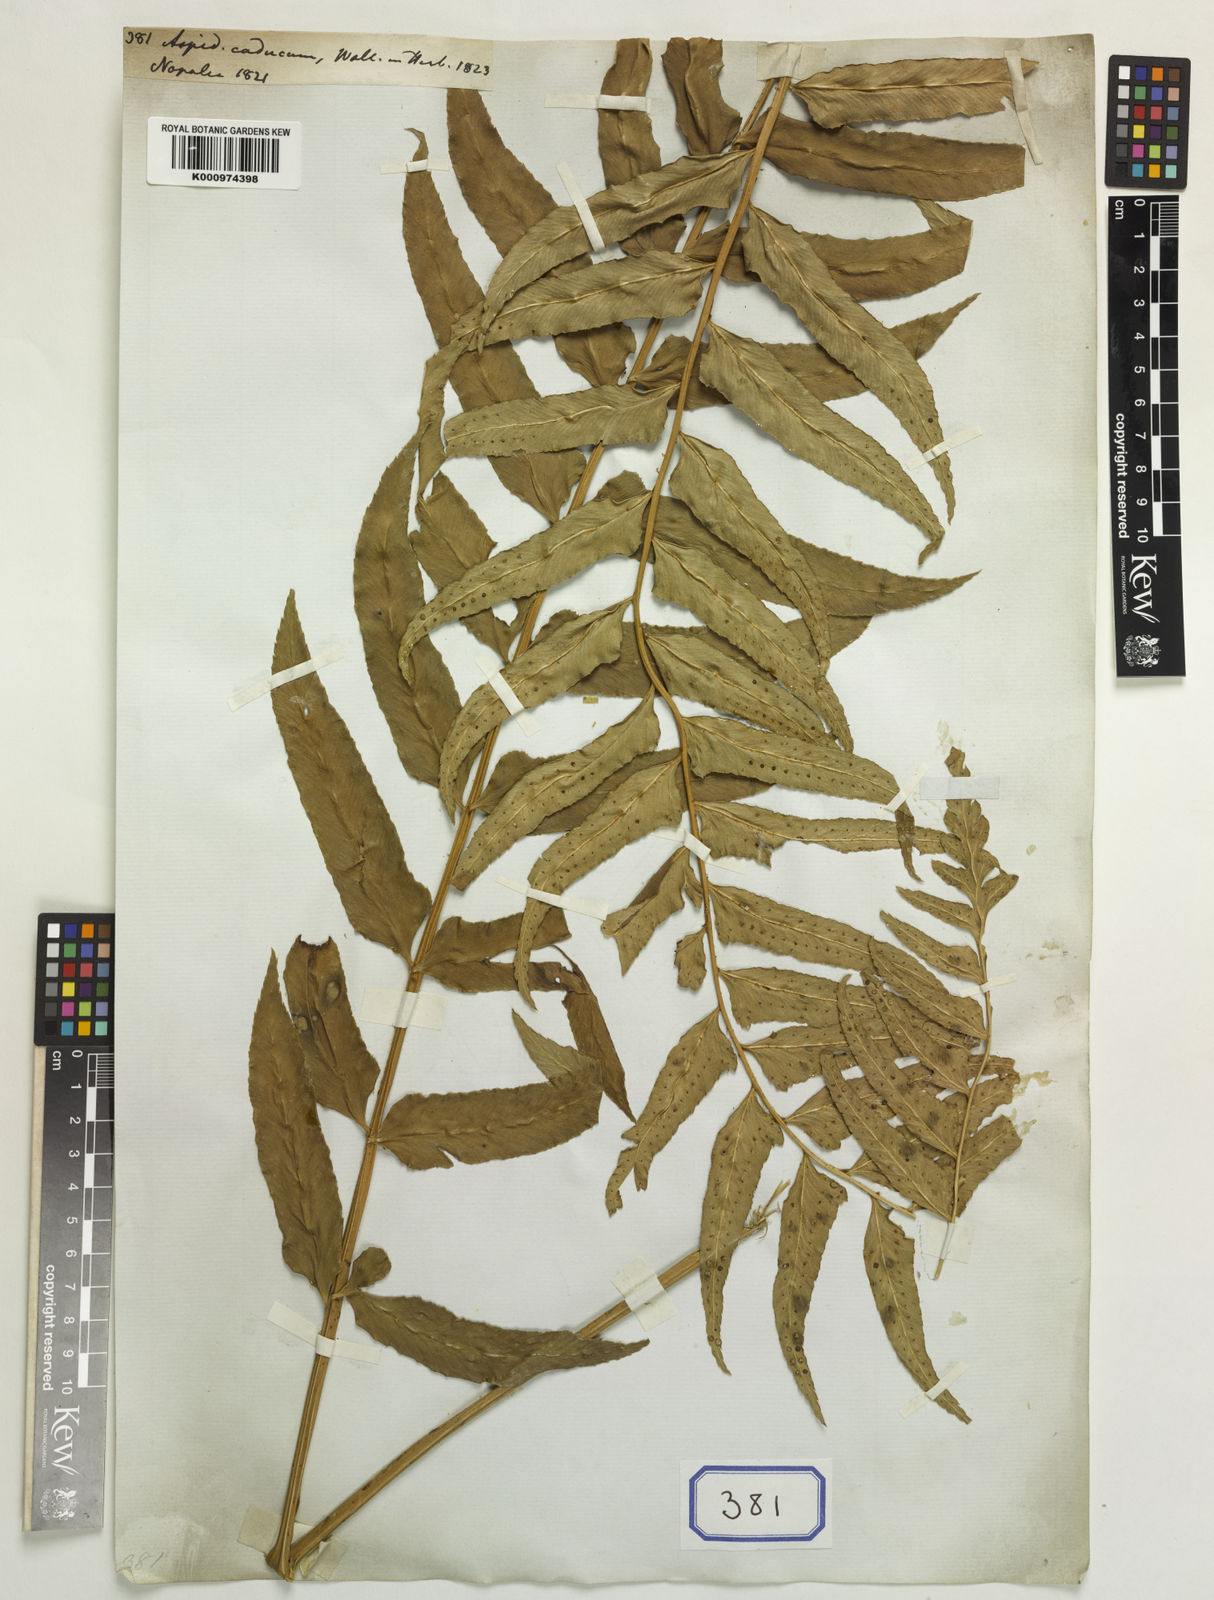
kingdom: Plantae
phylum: Tracheophyta
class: Polypodiopsida
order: Polypodiales
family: Dryopteridaceae
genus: Polystichum
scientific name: Polystichum hookerianum
